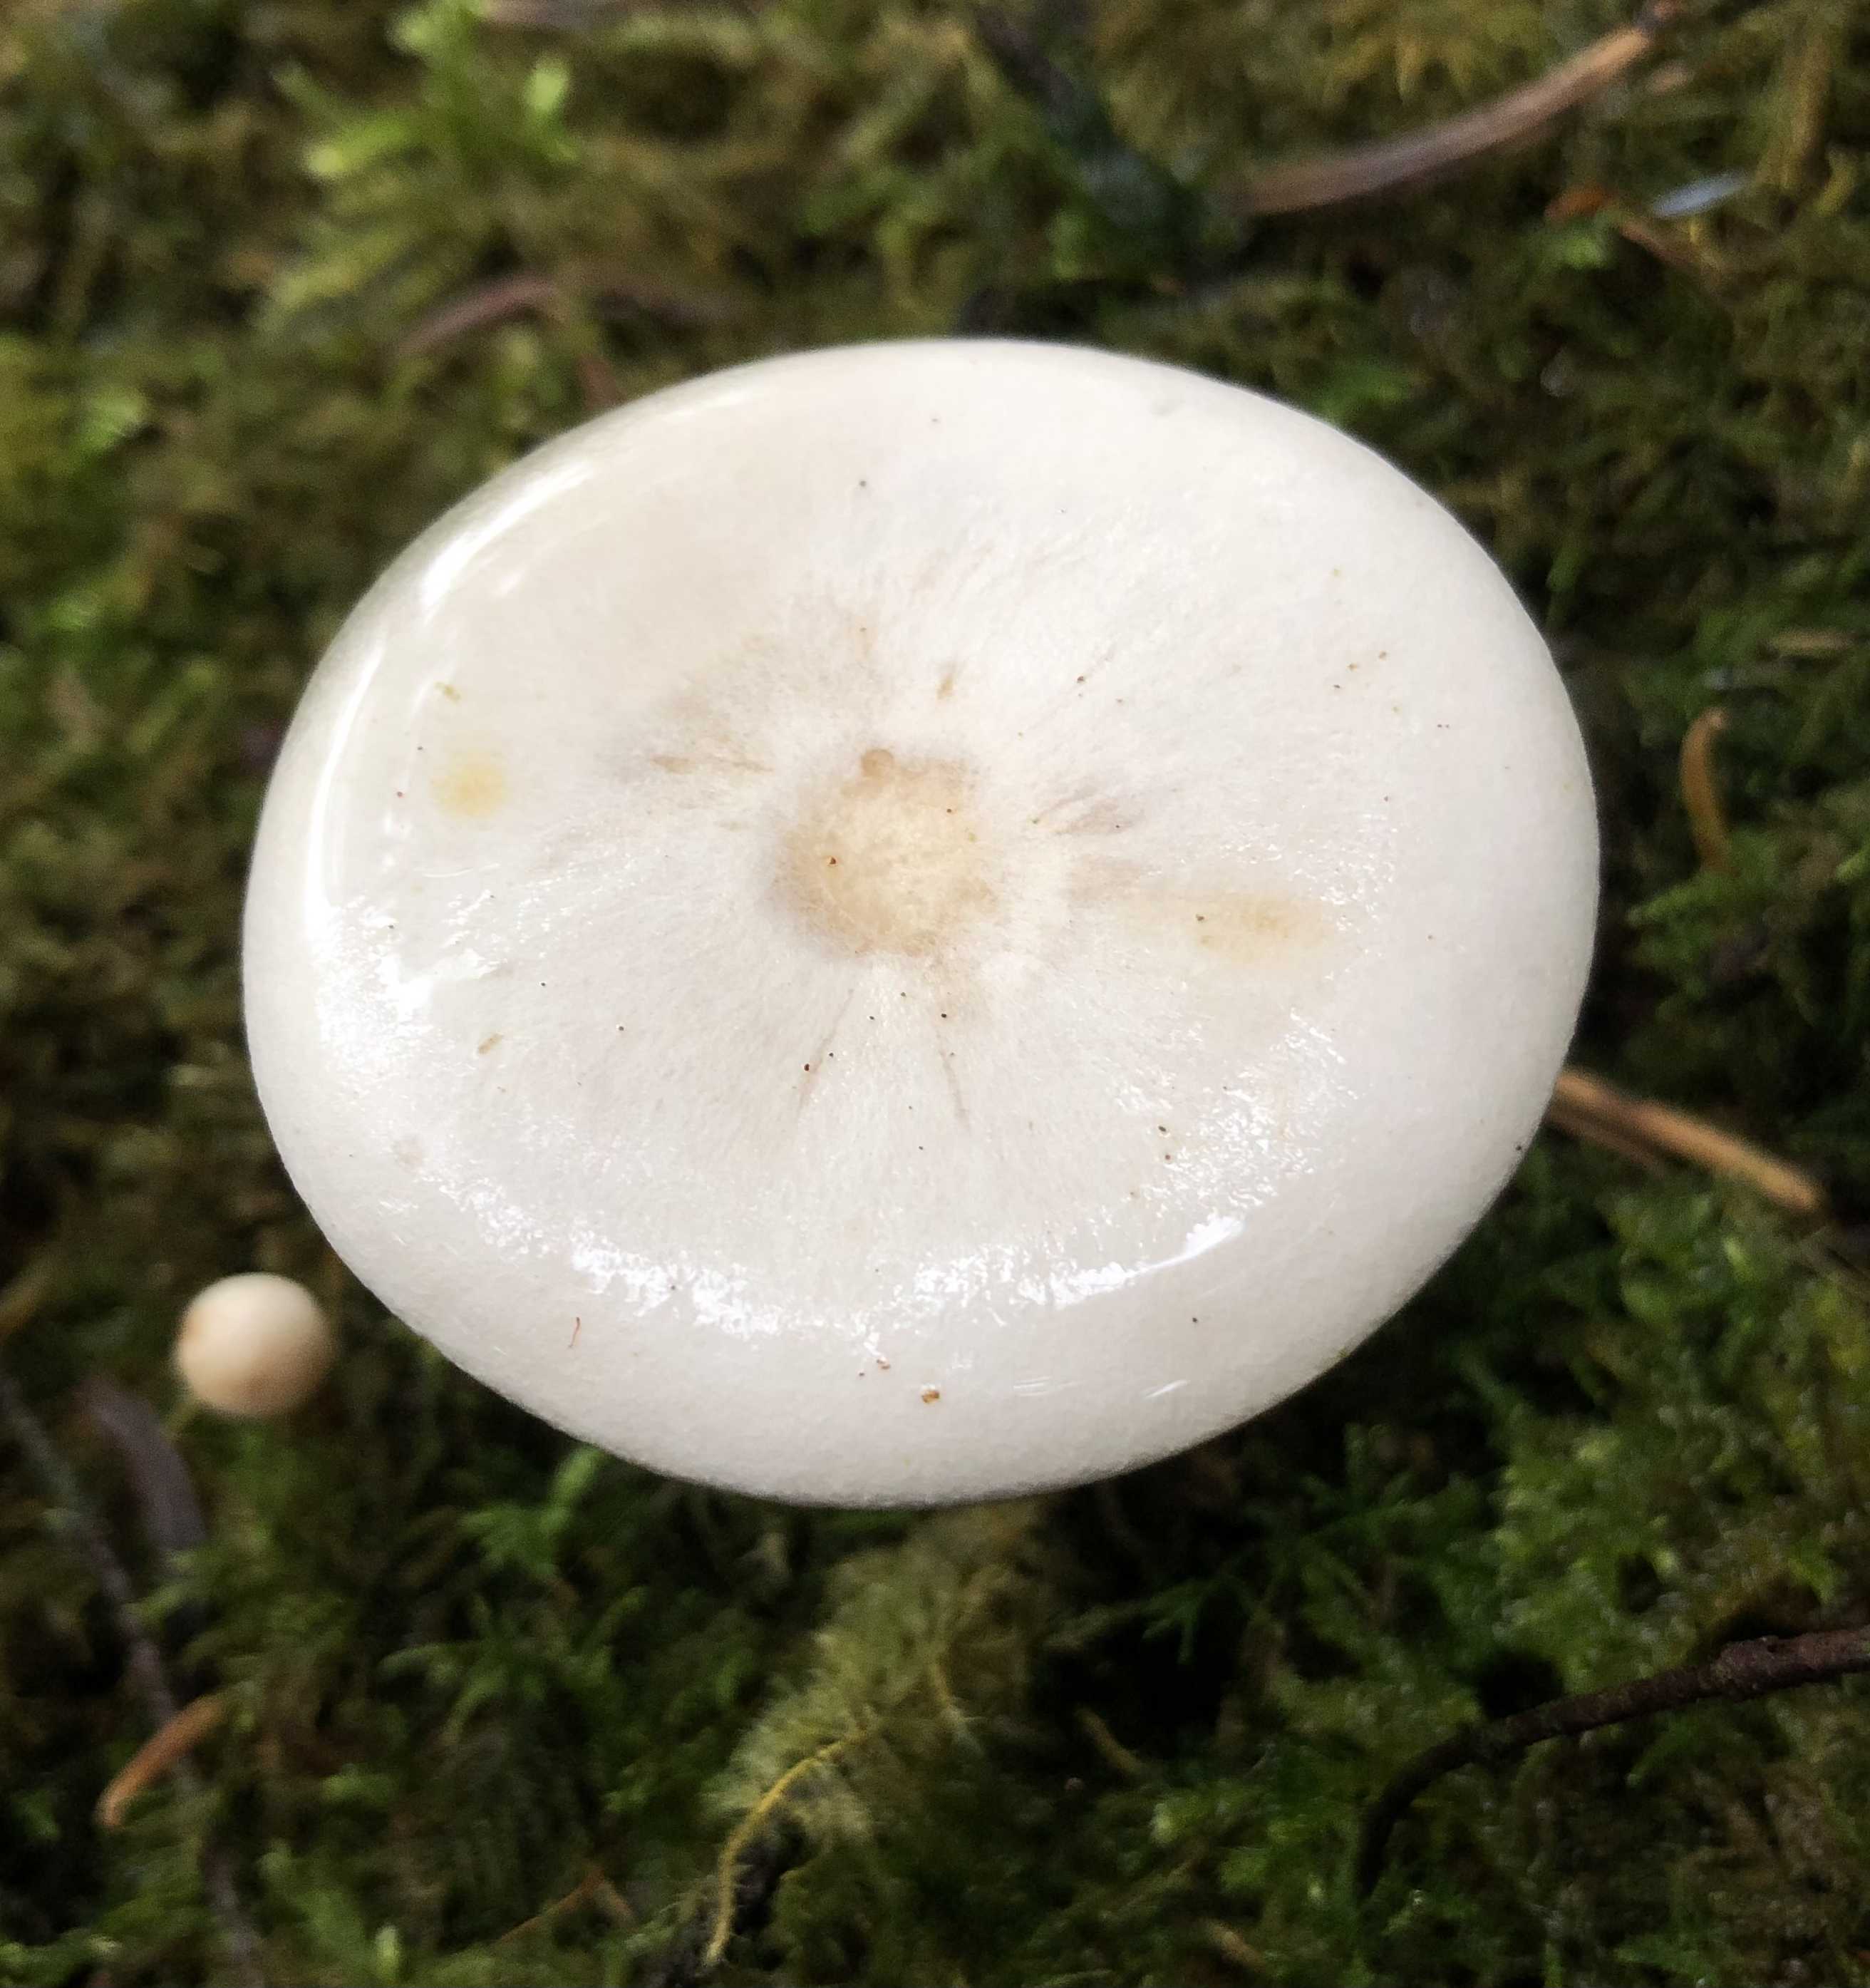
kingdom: Fungi
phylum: Basidiomycota
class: Agaricomycetes
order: Agaricales
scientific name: Agaricales
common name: champignonordenen
